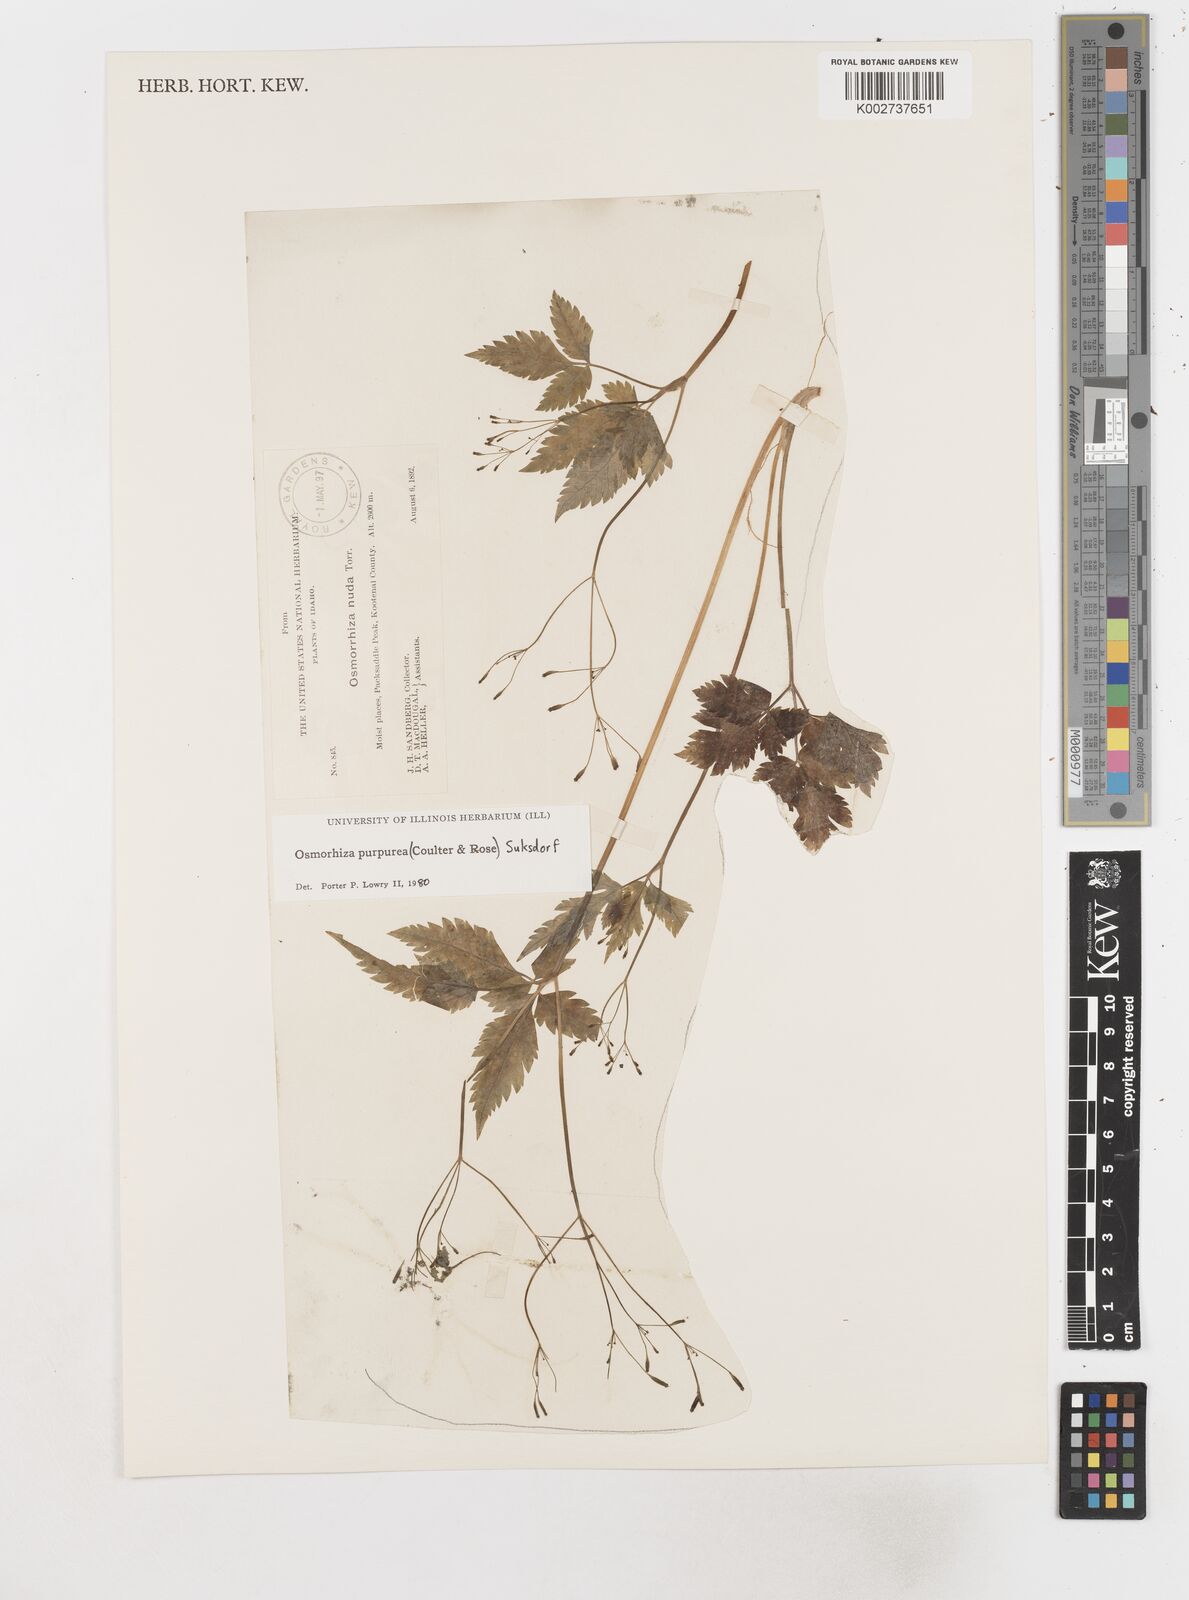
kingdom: Plantae
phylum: Tracheophyta
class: Magnoliopsida
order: Apiales
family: Apiaceae
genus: Osmorhiza
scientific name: Osmorhiza purpurea
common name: Purple sweet cicely
